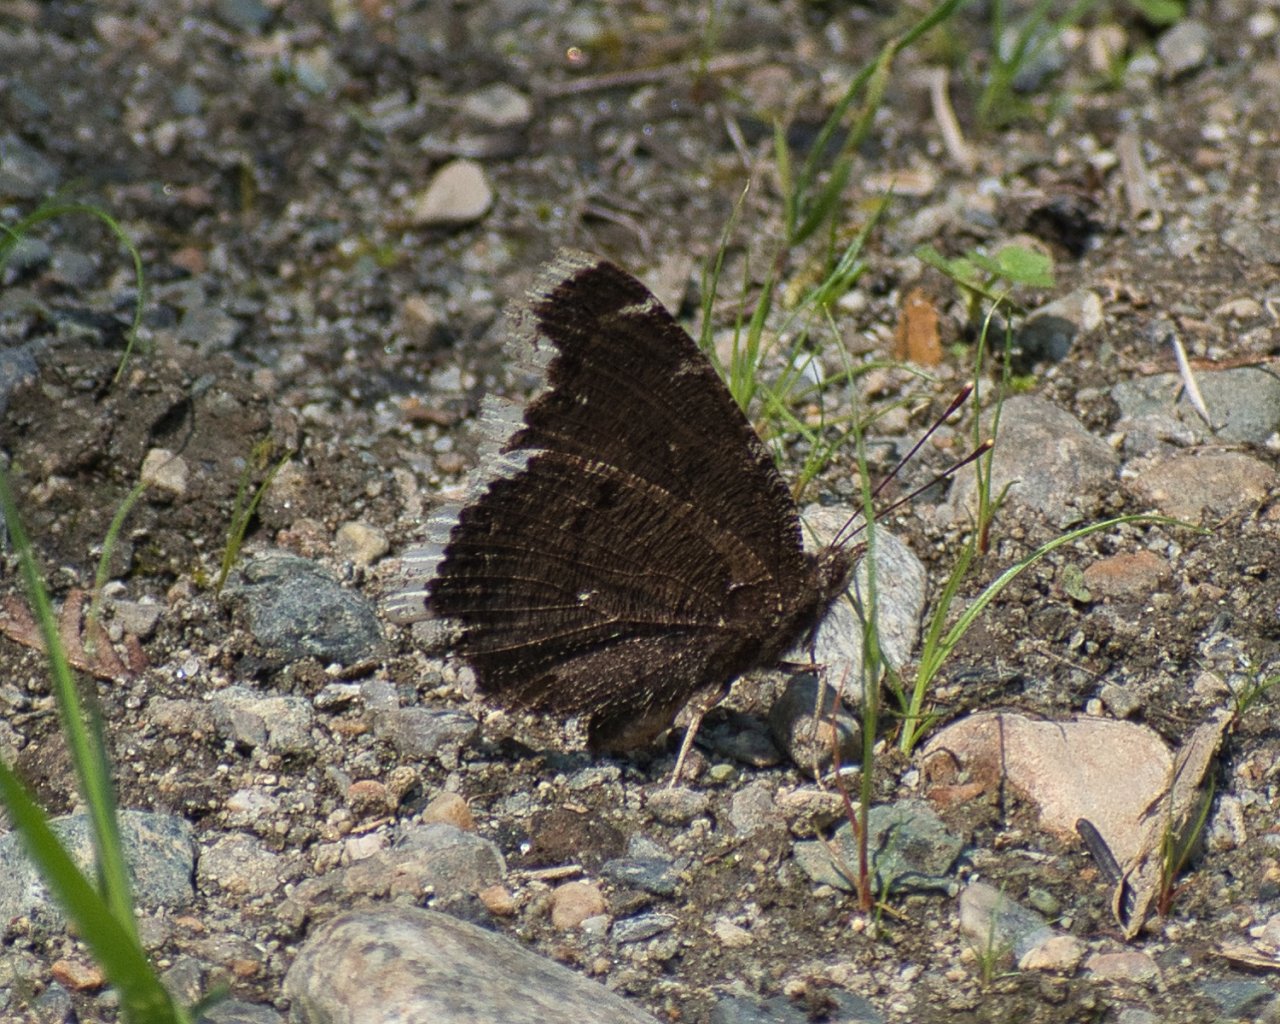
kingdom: Animalia
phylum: Arthropoda
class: Insecta
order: Lepidoptera
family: Nymphalidae
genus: Nymphalis
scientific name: Nymphalis antiopa
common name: Mourning Cloak
